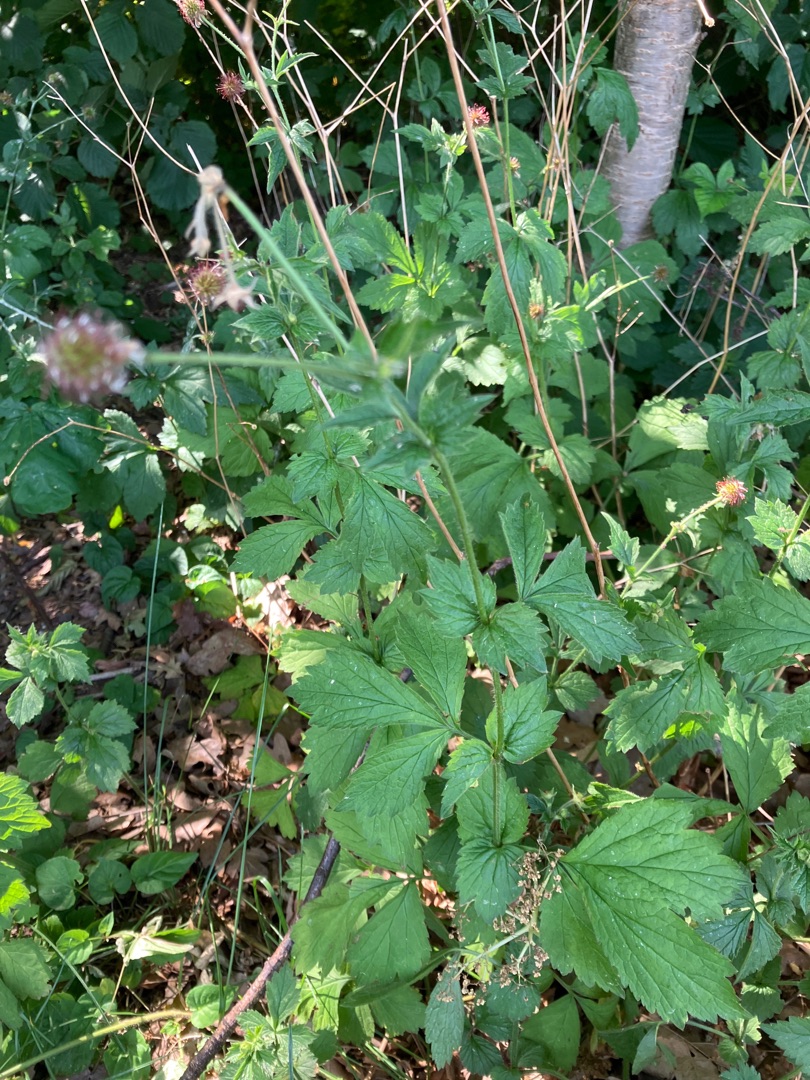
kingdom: Plantae
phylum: Tracheophyta
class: Magnoliopsida
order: Rosales
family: Rosaceae
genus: Geum
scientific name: Geum urbanum
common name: Feber-nellikerod
